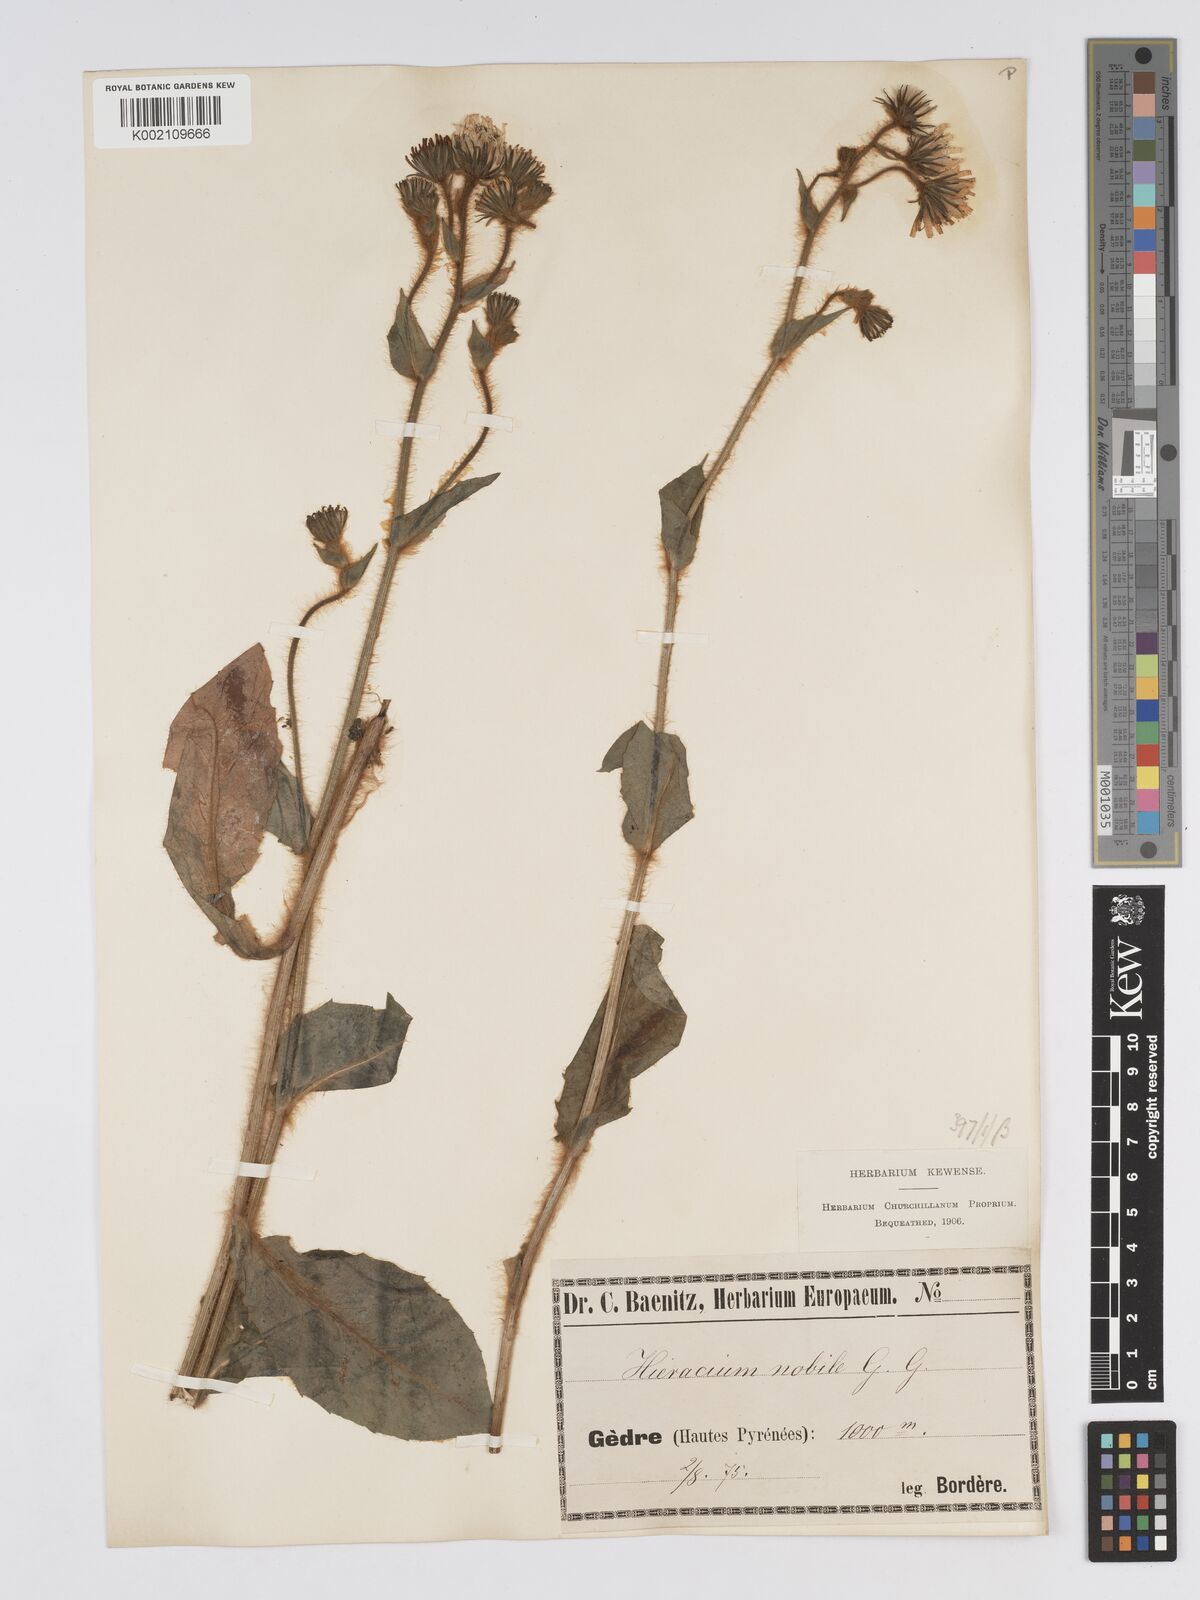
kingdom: Plantae
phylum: Tracheophyta
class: Magnoliopsida
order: Asterales
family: Asteraceae
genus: Hieracium
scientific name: Hieracium nobile
